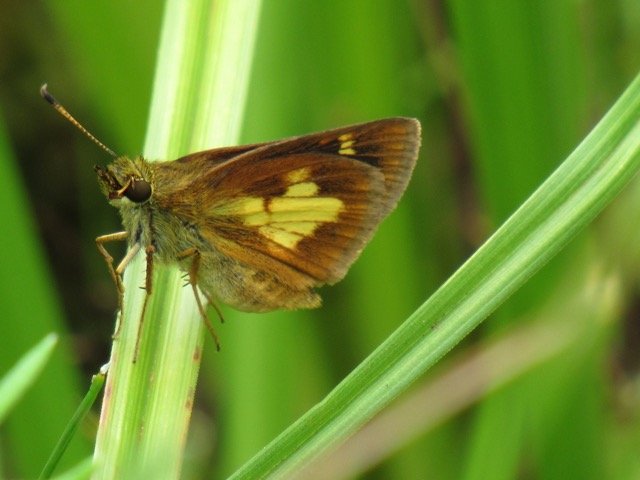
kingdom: Animalia
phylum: Arthropoda
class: Insecta
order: Lepidoptera
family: Hesperiidae
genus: Poanes
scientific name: Poanes massasoit
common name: Mulberry Wing
